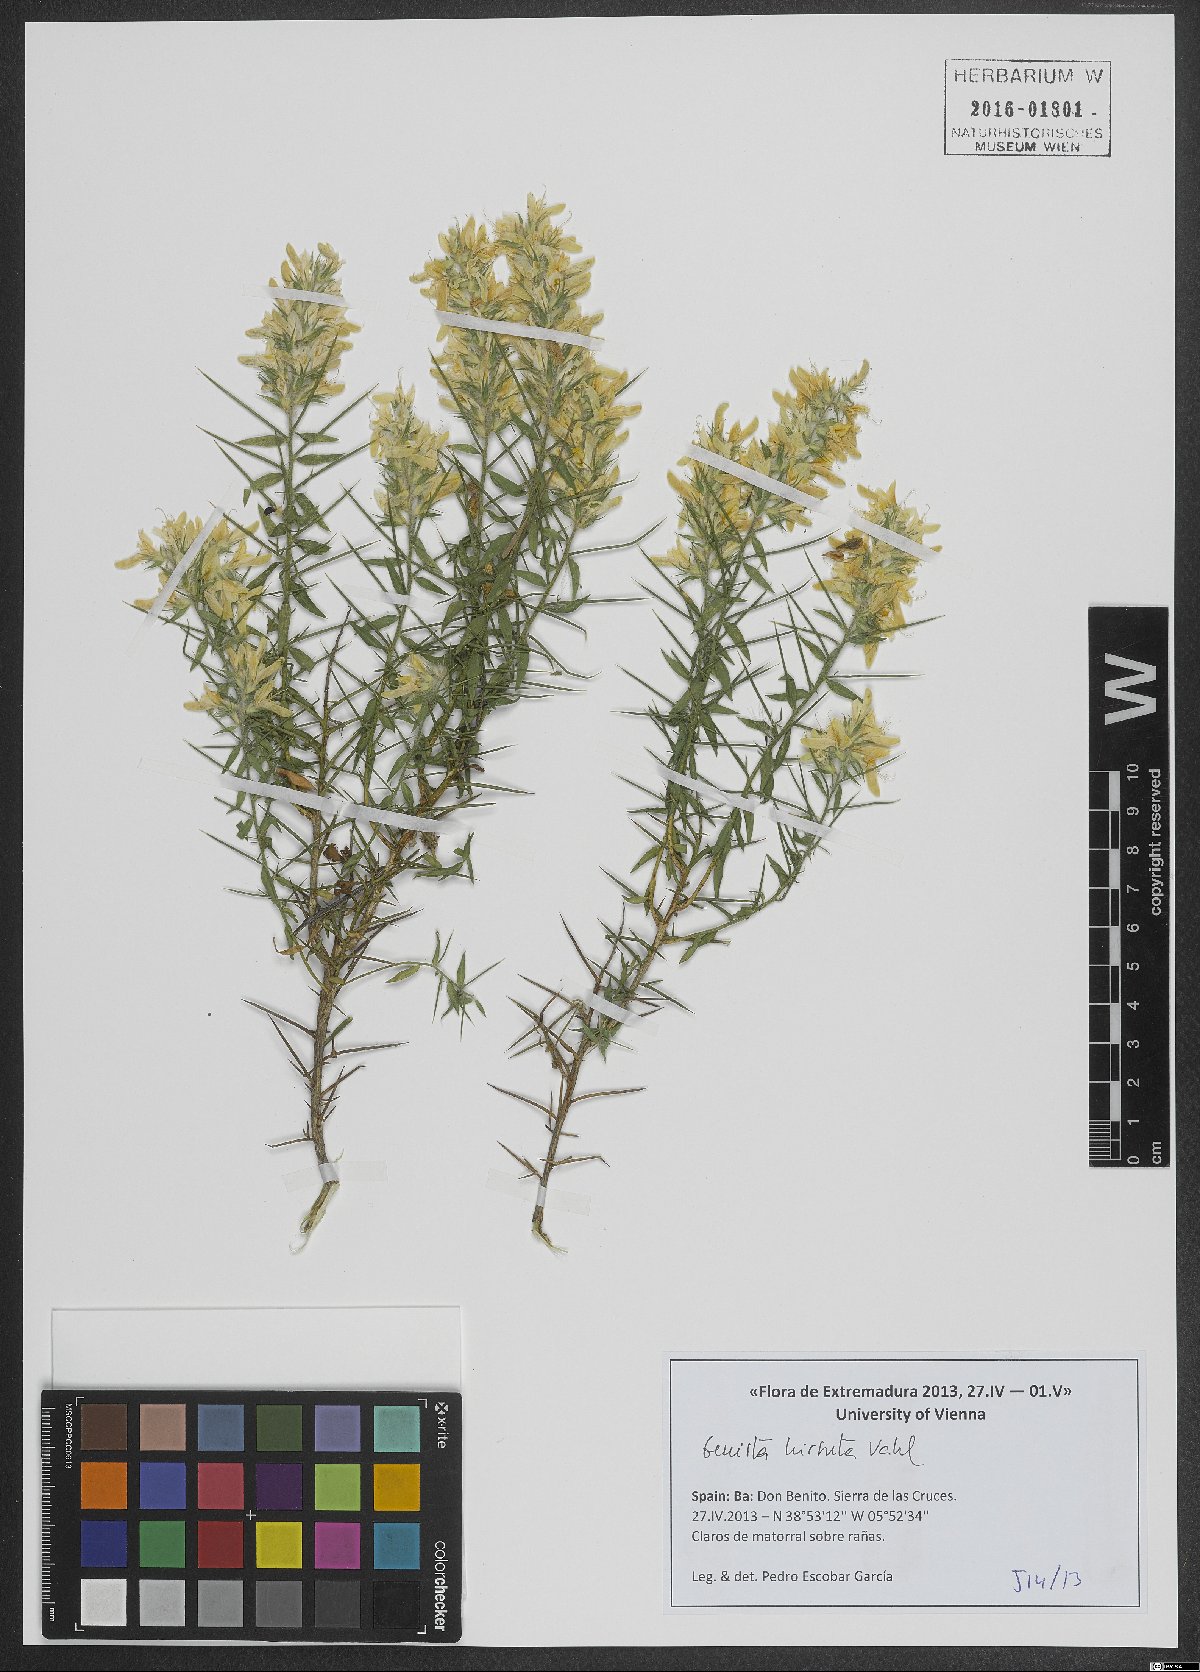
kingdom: Plantae
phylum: Tracheophyta
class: Magnoliopsida
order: Fabales
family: Fabaceae
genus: Genista
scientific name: Genista hirsuta
